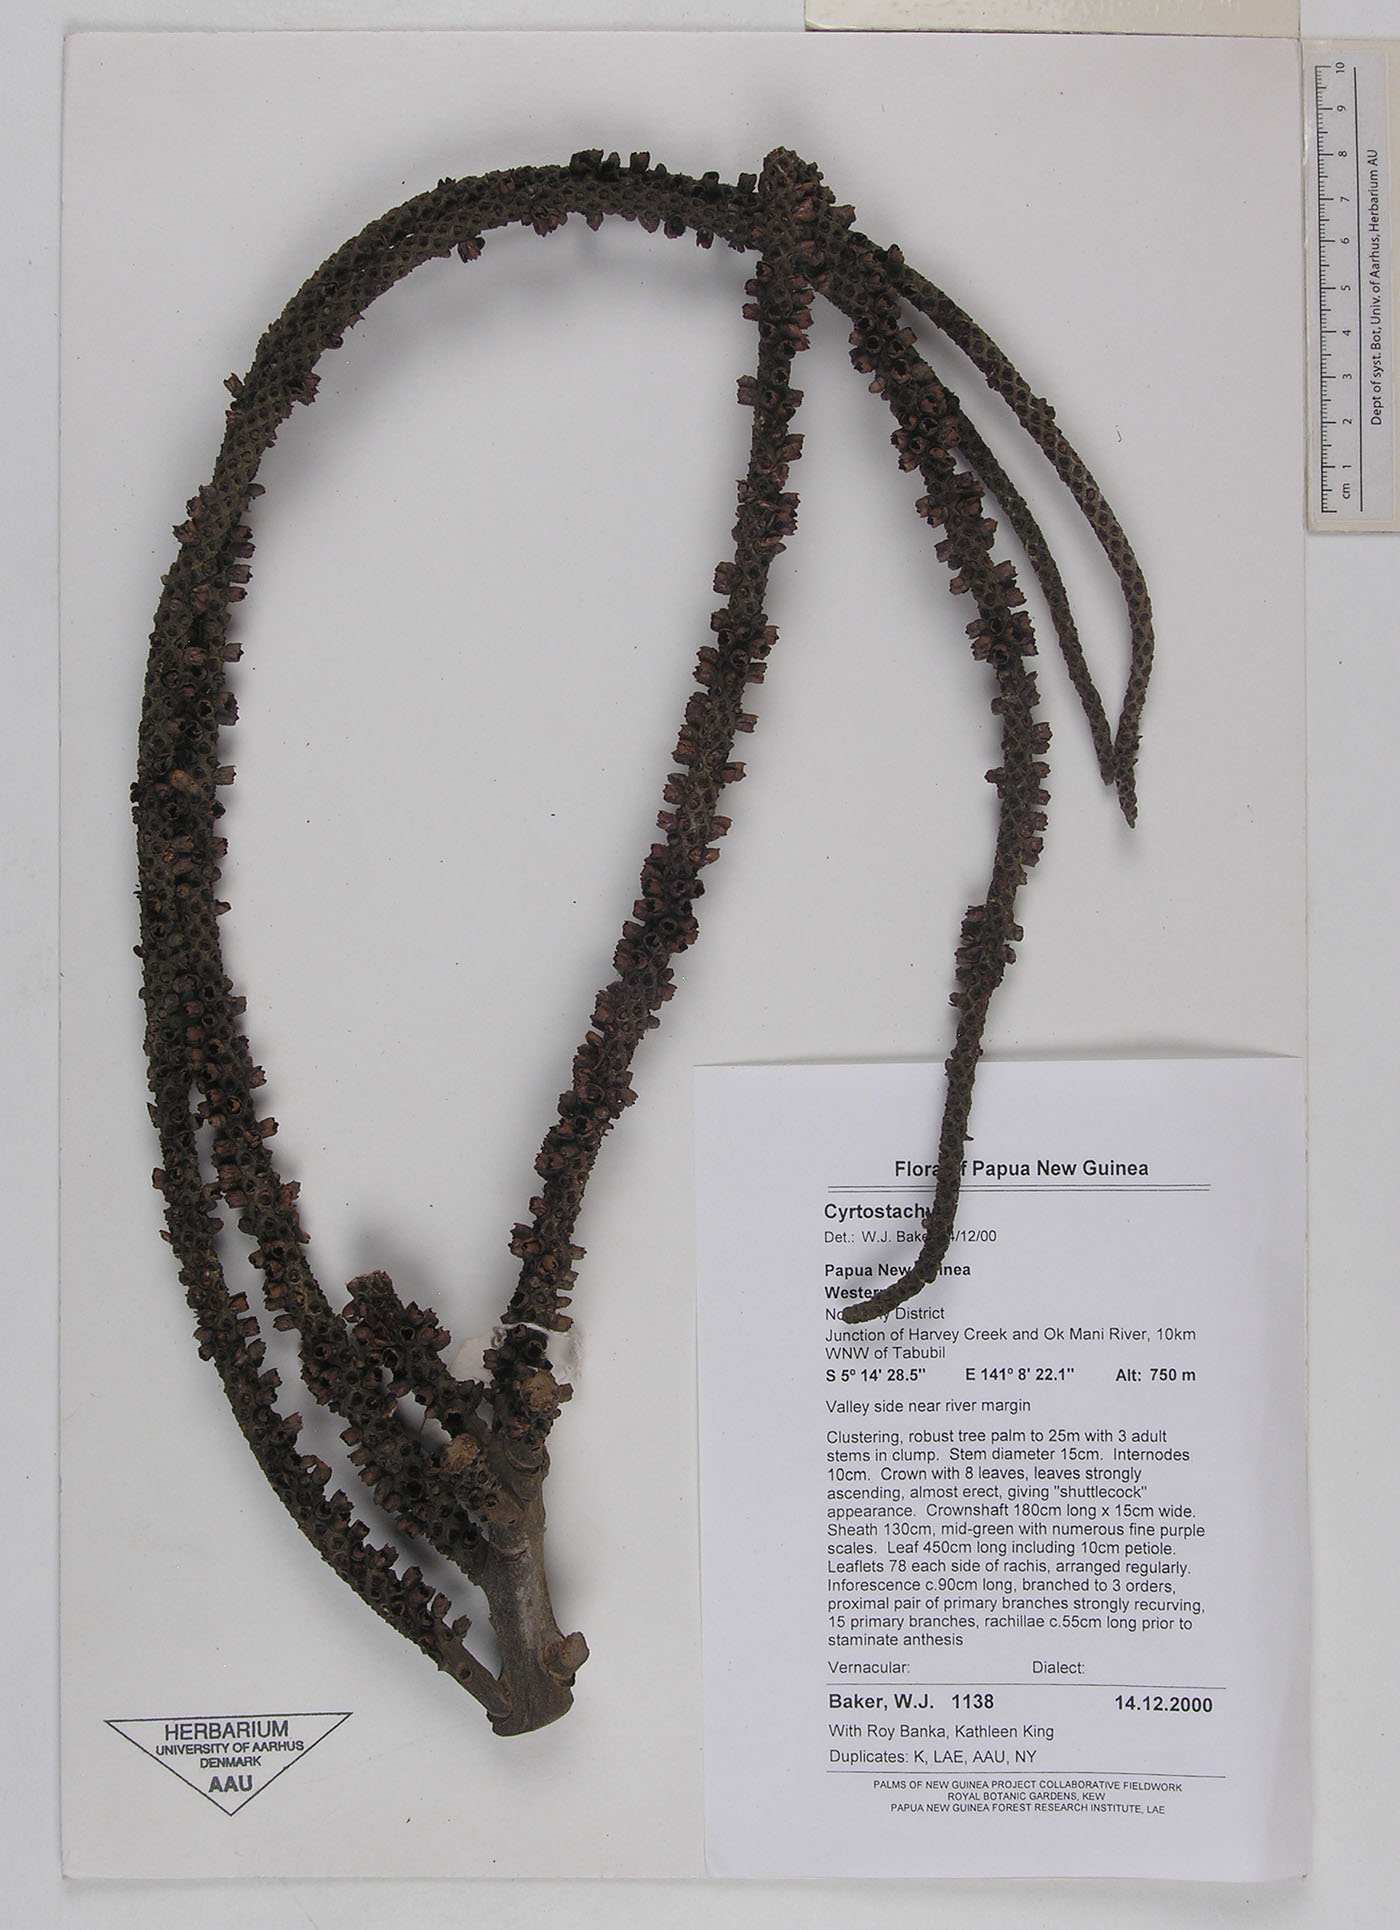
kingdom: Plantae
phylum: Tracheophyta
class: Liliopsida
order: Arecales
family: Arecaceae
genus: Cyrtostachys
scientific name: Cyrtostachys
